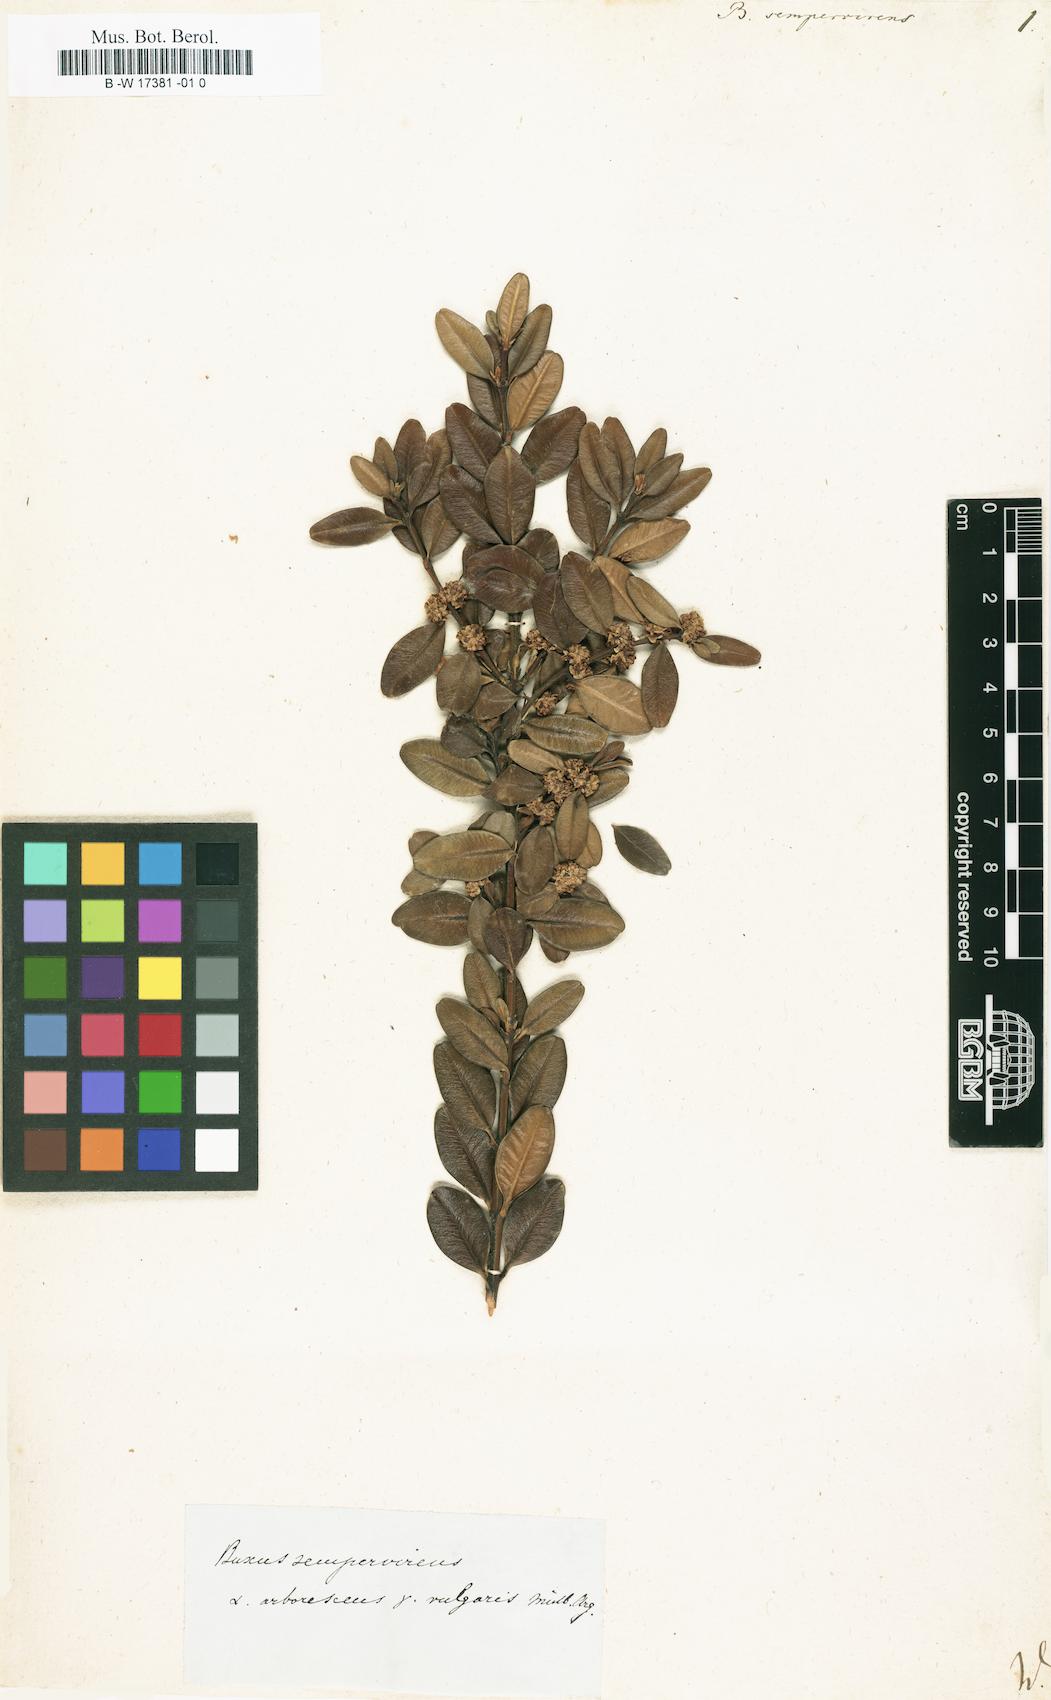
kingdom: Plantae
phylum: Tracheophyta
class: Magnoliopsida
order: Buxales
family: Buxaceae
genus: Buxus
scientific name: Buxus sempervirens
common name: Box
